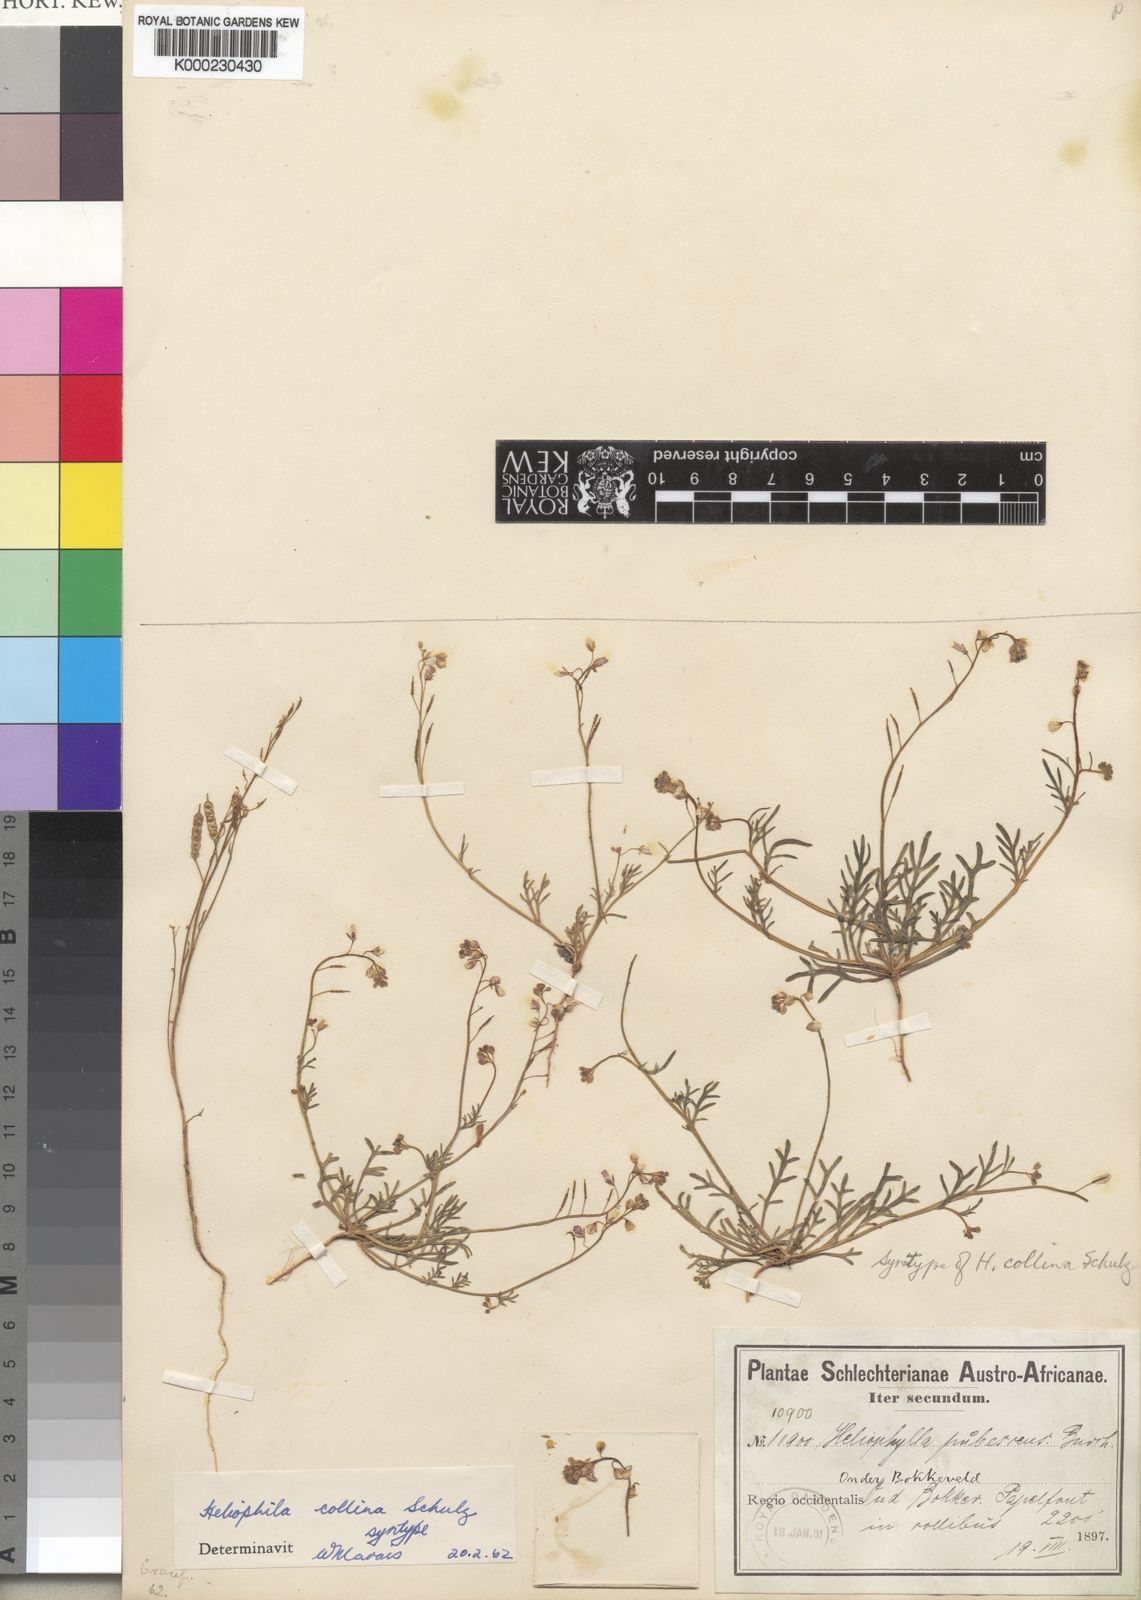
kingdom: Plantae
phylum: Tracheophyta
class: Magnoliopsida
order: Brassicales
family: Brassicaceae
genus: Heliophila
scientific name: Heliophila collina
